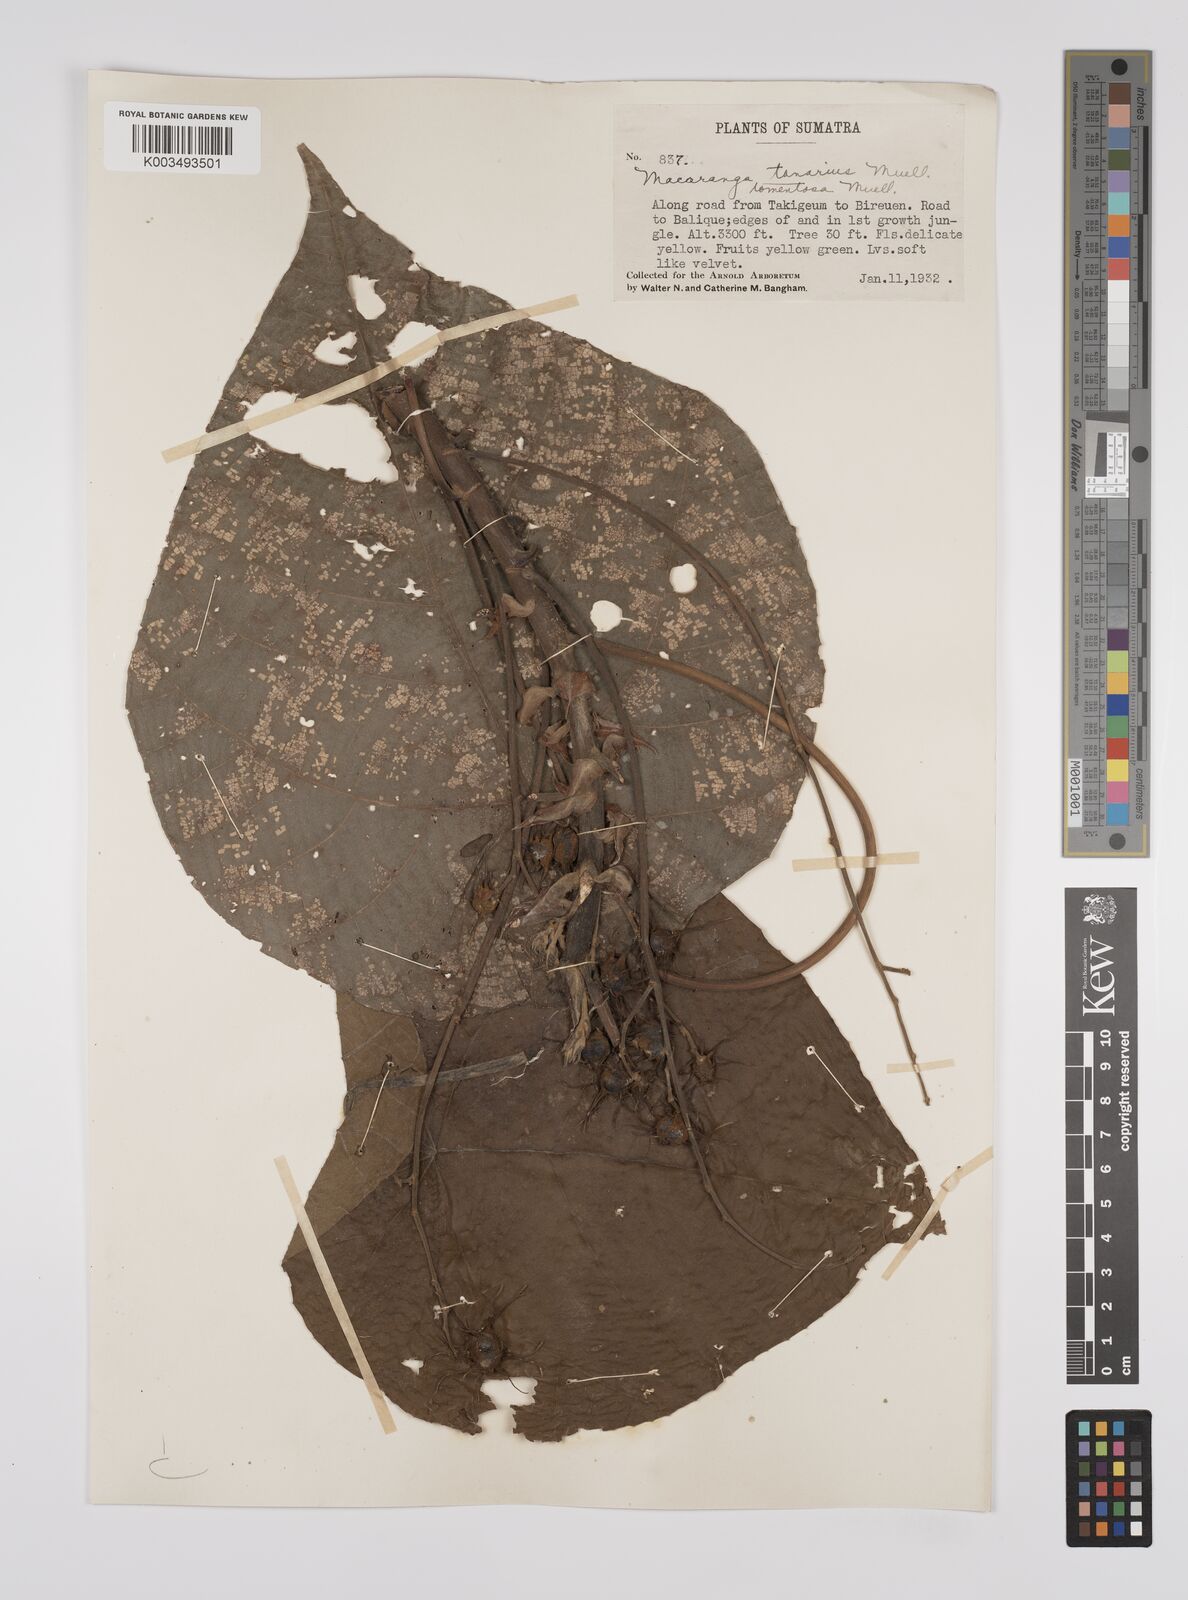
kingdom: Plantae
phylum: Tracheophyta
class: Magnoliopsida
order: Malpighiales
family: Euphorbiaceae
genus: Macaranga
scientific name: Macaranga tanarius
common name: Parasol leaf tree
